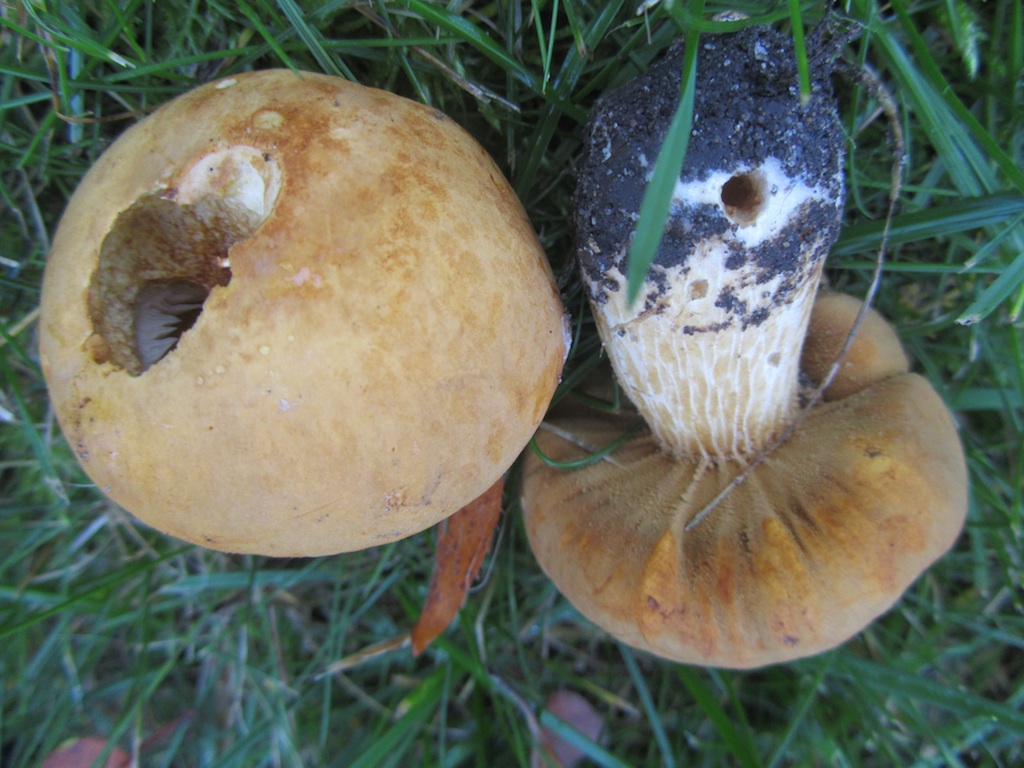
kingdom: Fungi
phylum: Basidiomycota
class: Agaricomycetes
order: Agaricales
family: Tricholomataceae
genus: Phaeolepiota
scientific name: Phaeolepiota aurea
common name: gyldenhat
